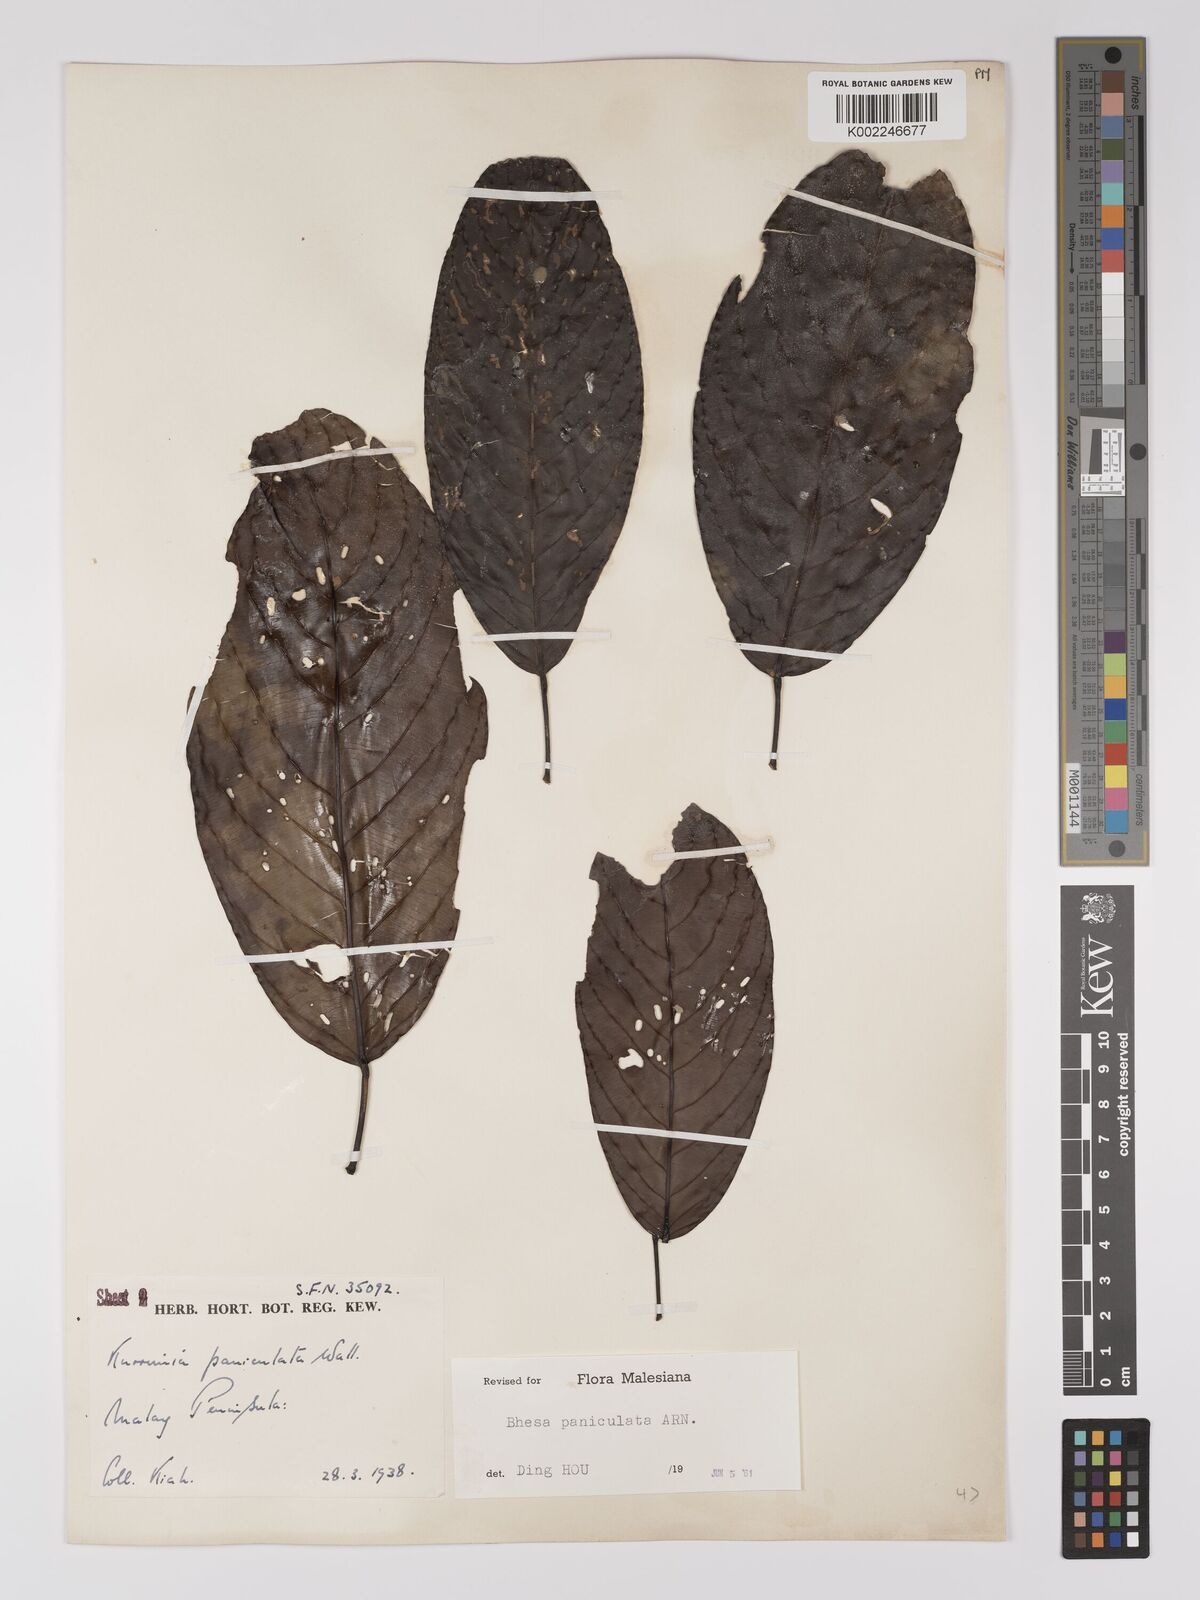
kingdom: Plantae
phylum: Tracheophyta
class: Magnoliopsida
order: Malpighiales
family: Centroplacaceae
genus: Bhesa
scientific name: Bhesa paniculata
